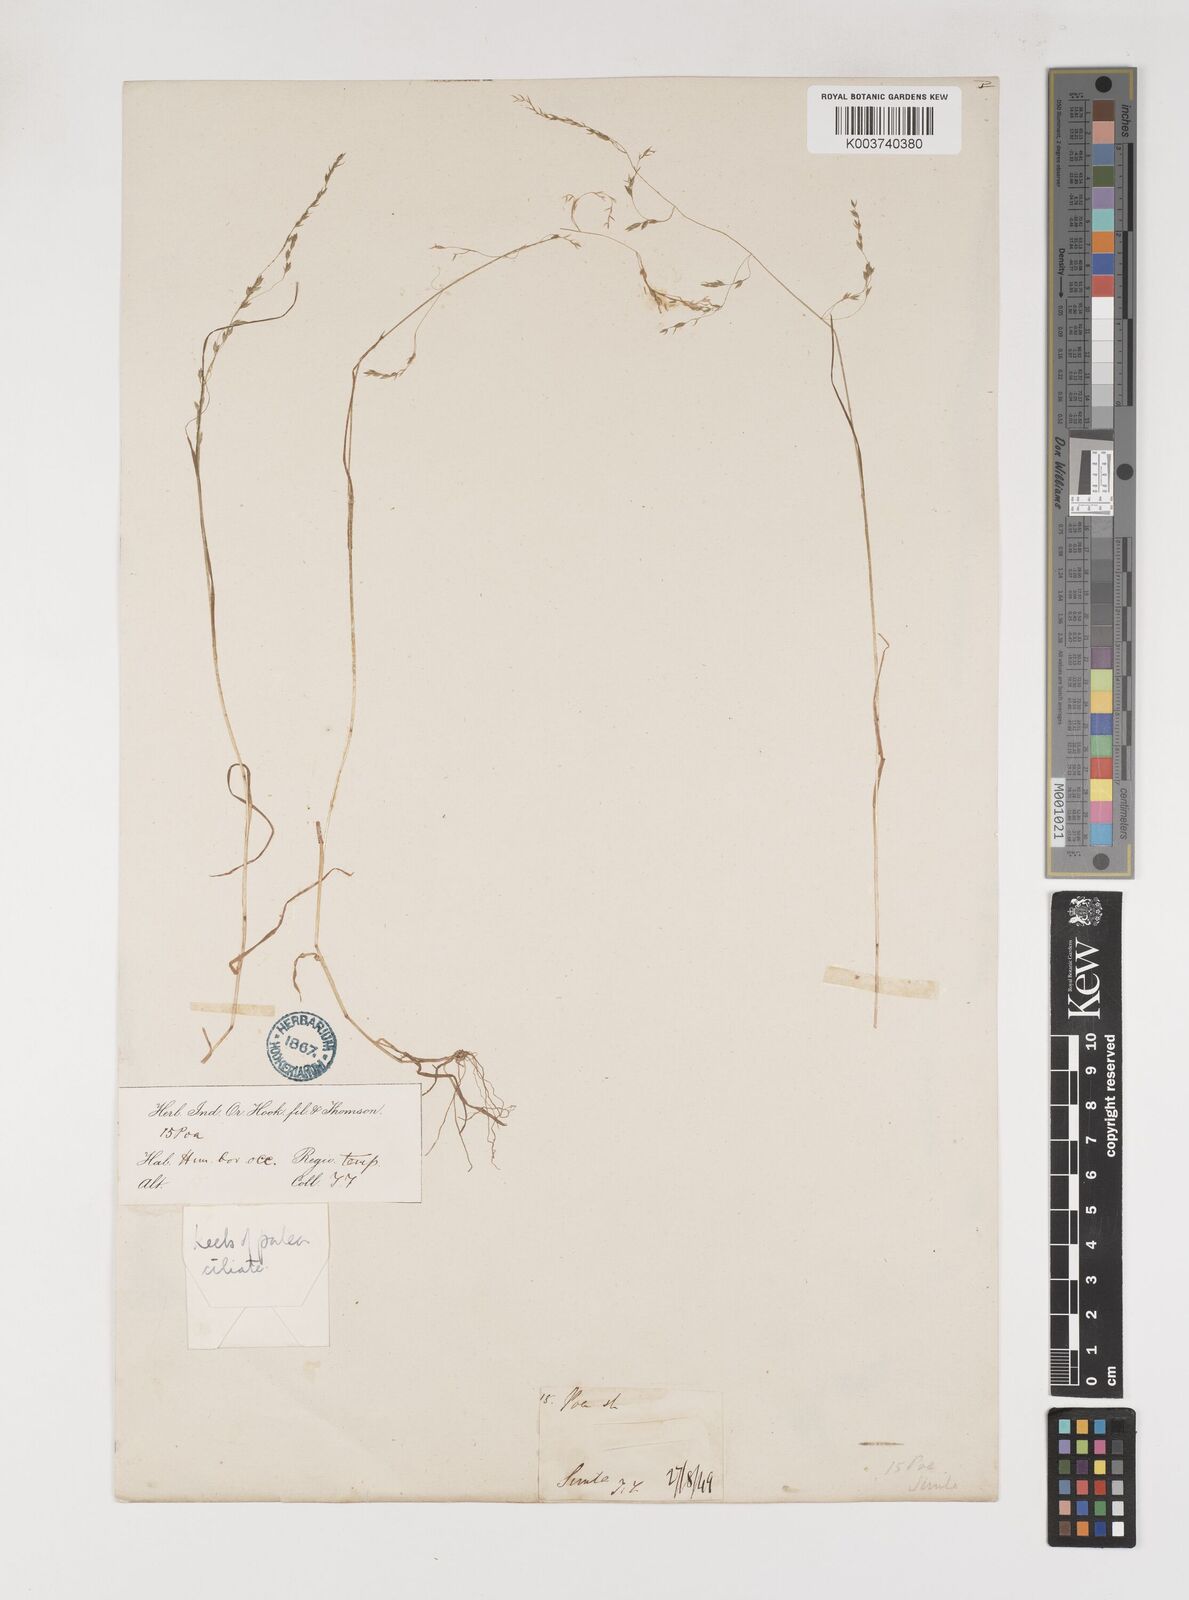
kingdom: Plantae
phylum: Tracheophyta
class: Liliopsida
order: Poales
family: Poaceae
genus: Poa
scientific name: Poa stewartiana
